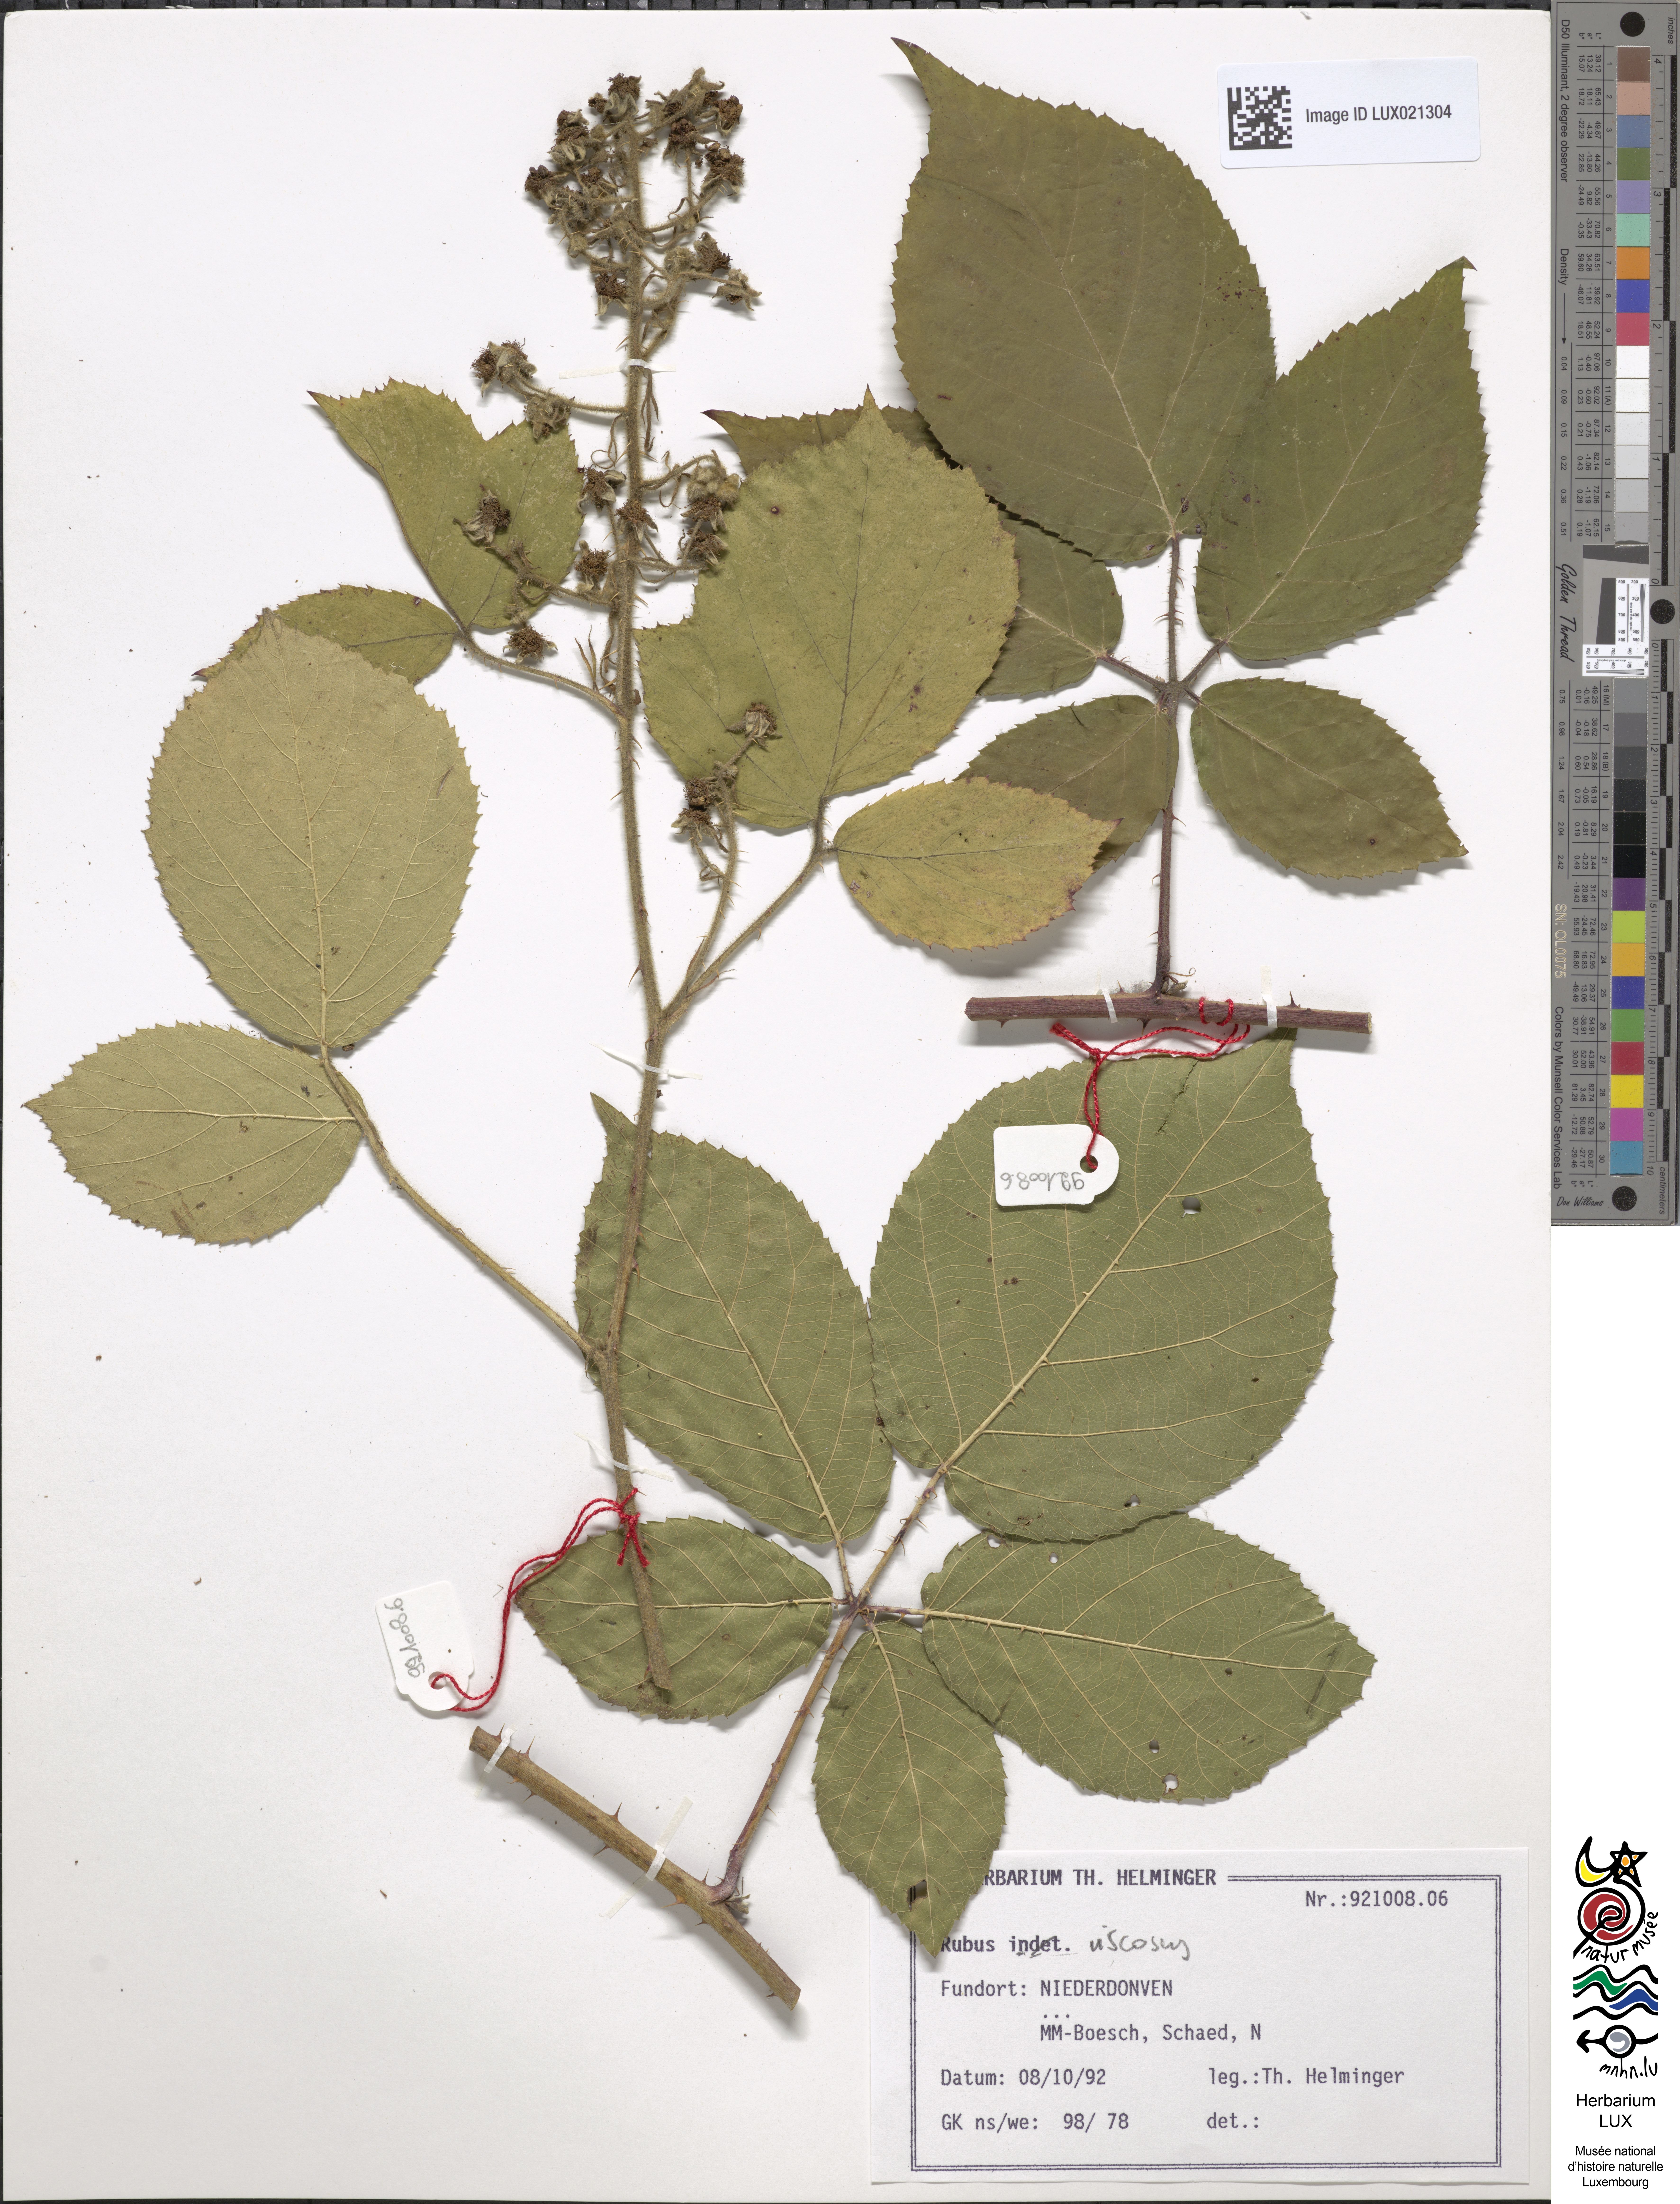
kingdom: Plantae
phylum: Tracheophyta
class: Magnoliopsida
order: Rosales
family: Rosaceae
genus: Rubus
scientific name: Rubus
